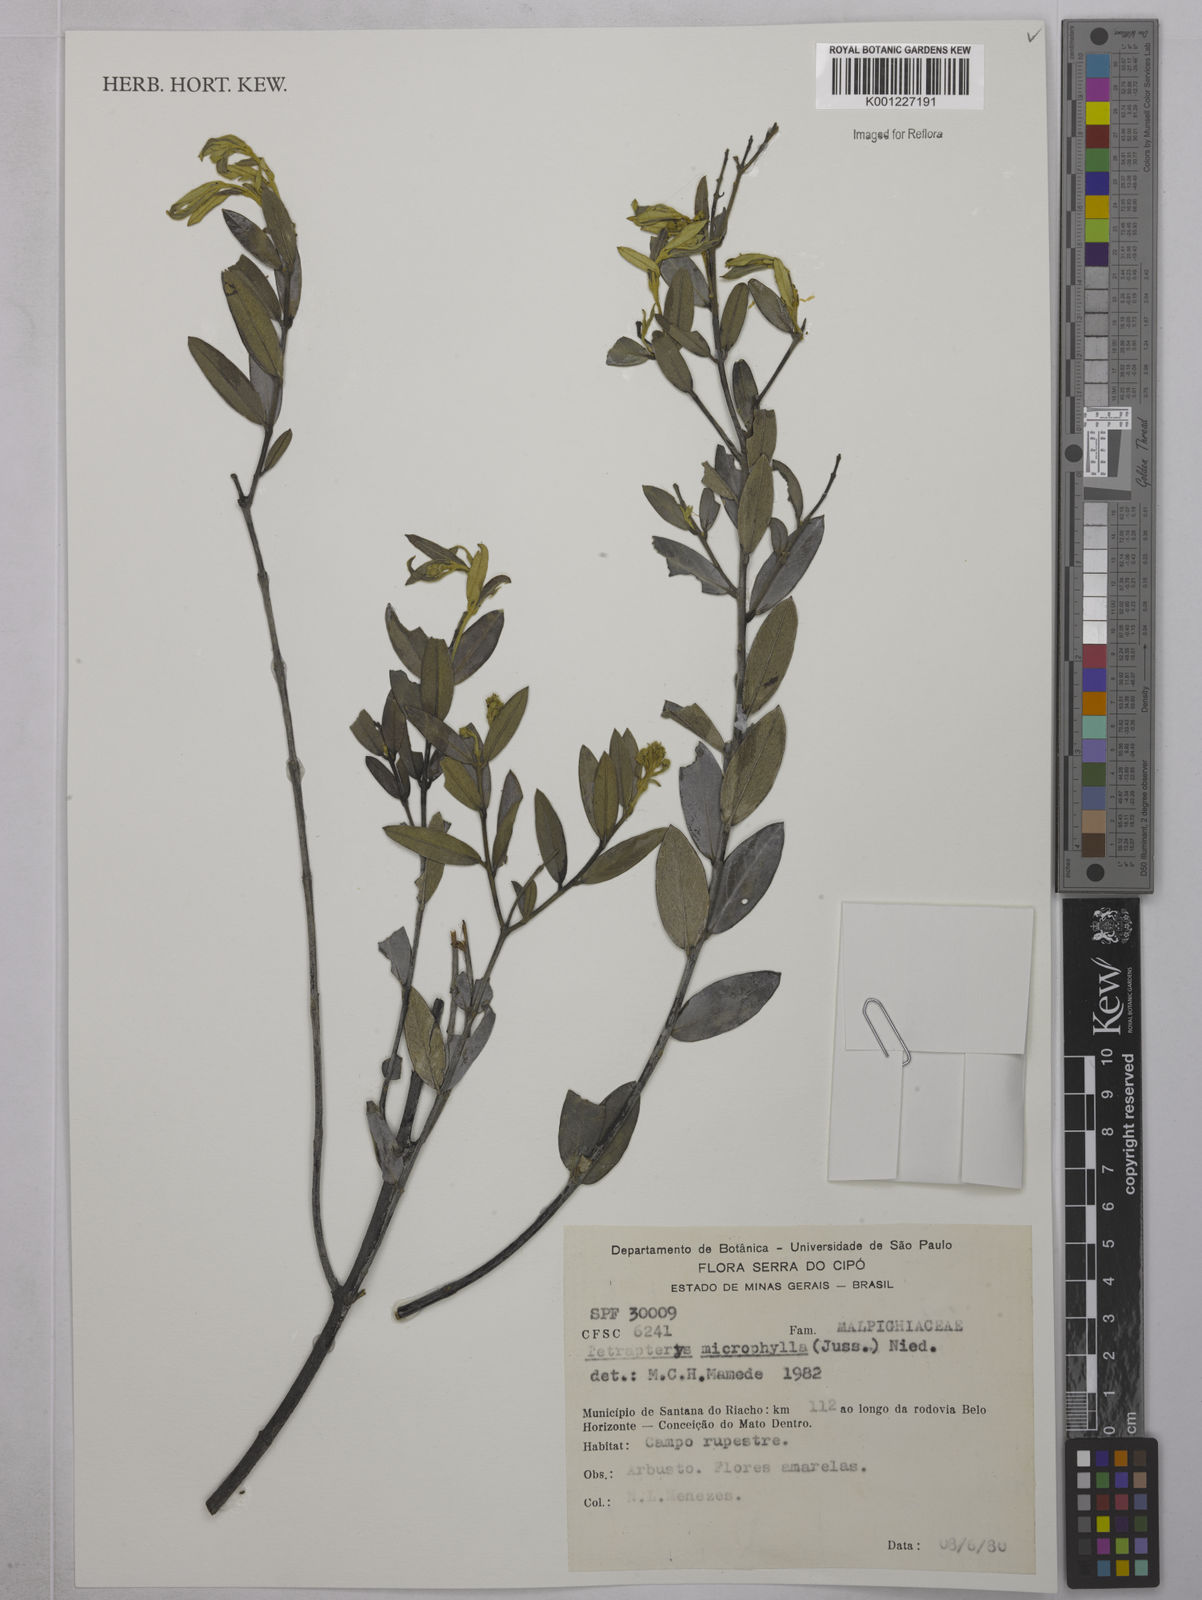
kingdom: Plantae
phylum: Tracheophyta
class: Magnoliopsida
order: Malpighiales
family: Malpighiaceae
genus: Glicophyllum
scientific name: Glicophyllum microphyllum
